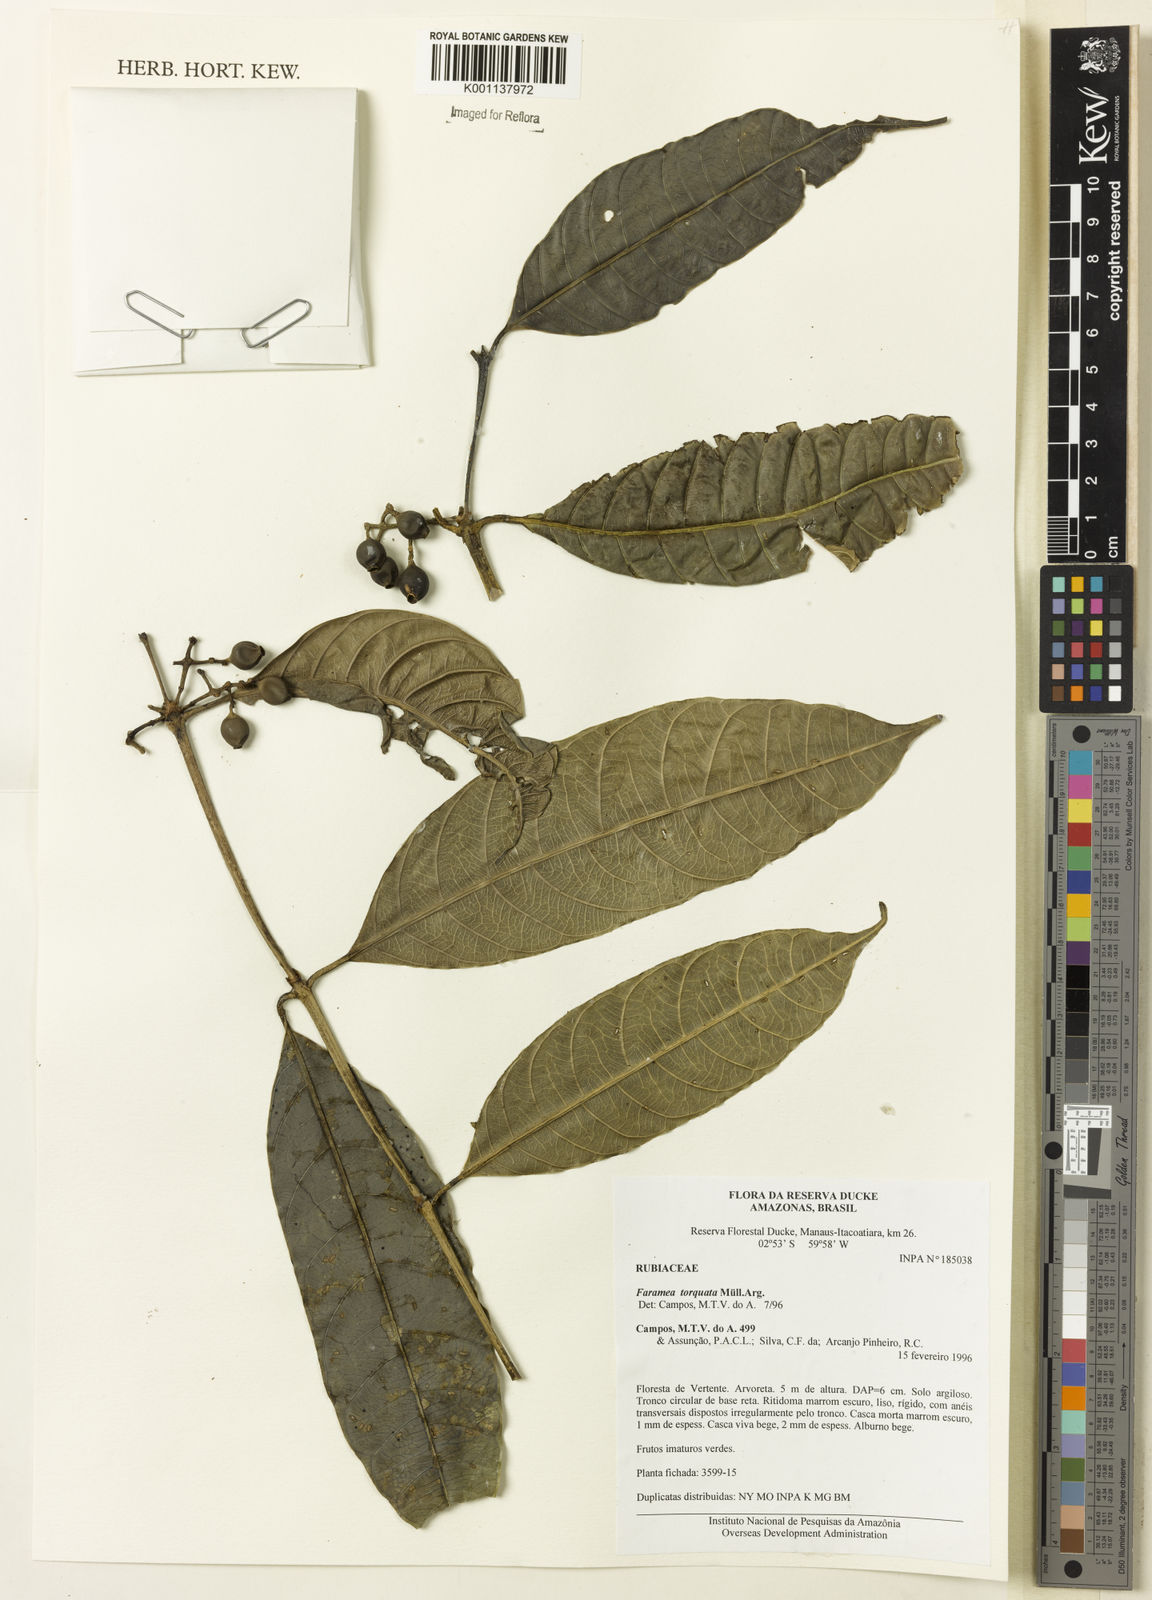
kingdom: Plantae
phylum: Tracheophyta
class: Magnoliopsida
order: Gentianales
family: Rubiaceae
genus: Faramea
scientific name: Faramea
